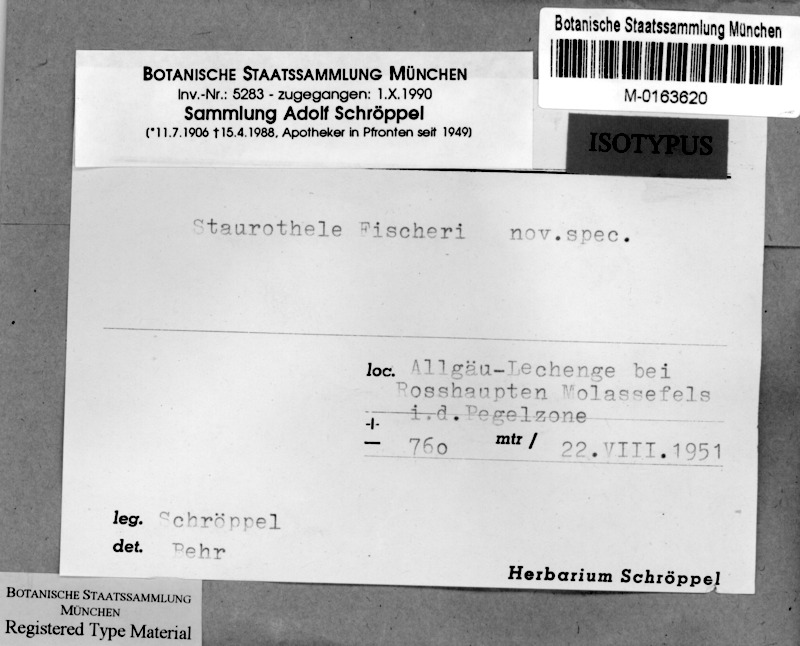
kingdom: Fungi
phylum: Ascomycota
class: Eurotiomycetes
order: Verrucariales
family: Verrucariaceae
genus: Staurothele
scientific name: Staurothele
